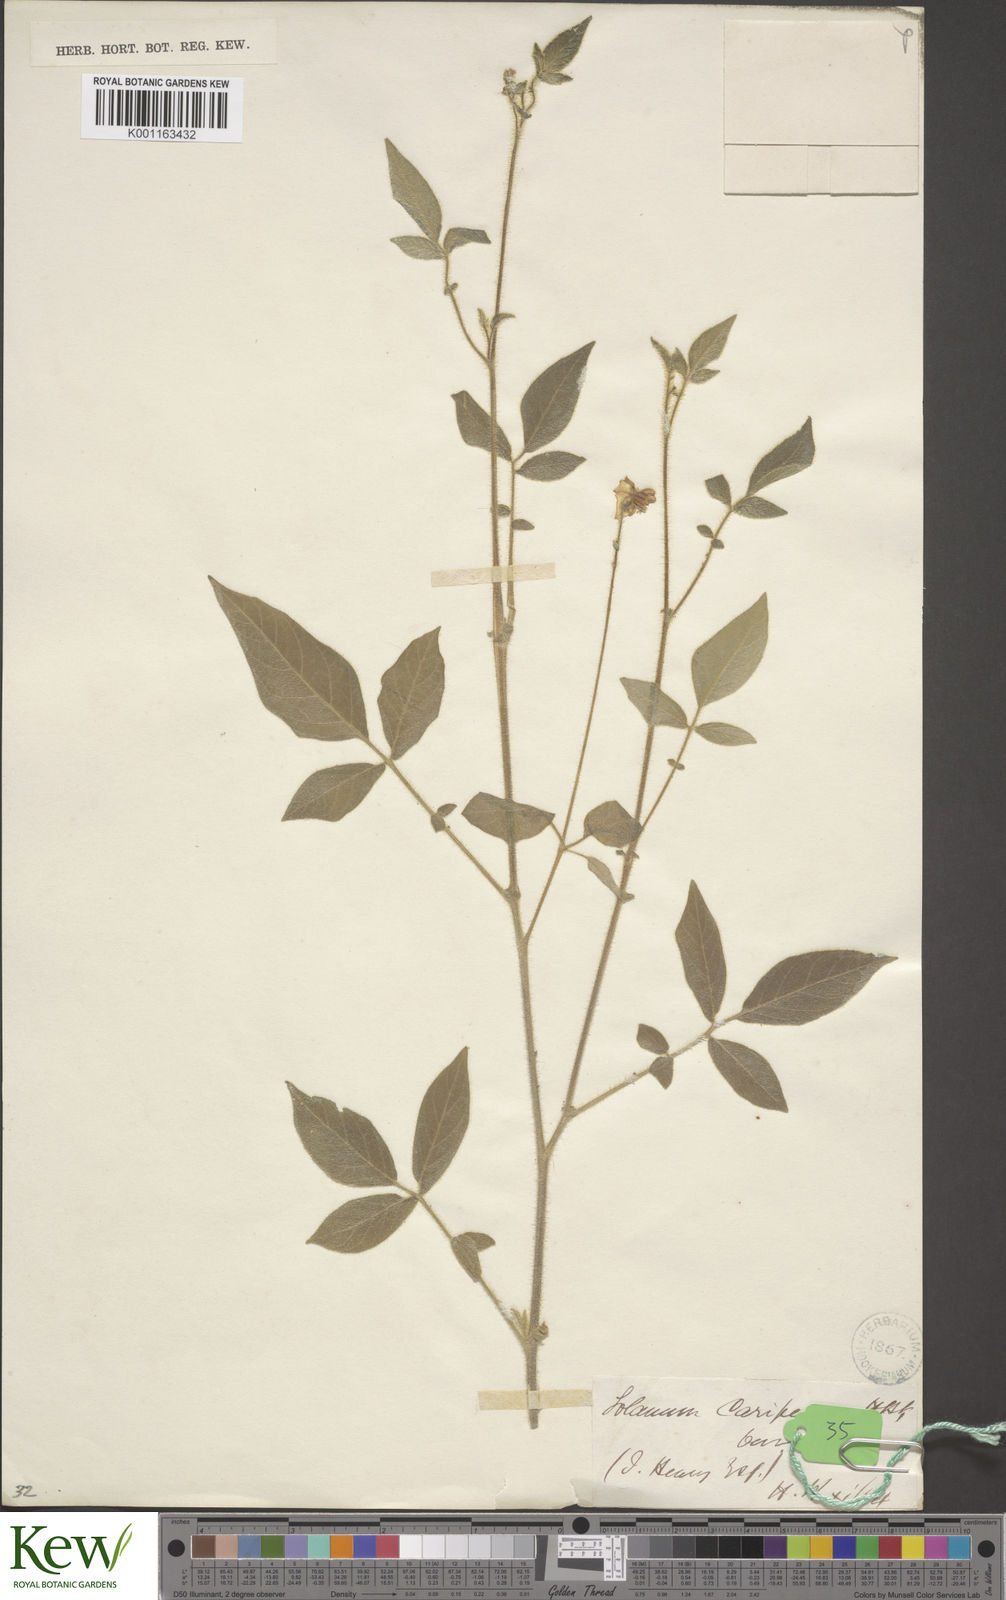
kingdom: Plantae
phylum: Tracheophyta
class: Magnoliopsida
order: Solanales
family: Solanaceae
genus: Solanum
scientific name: Solanum caripense
